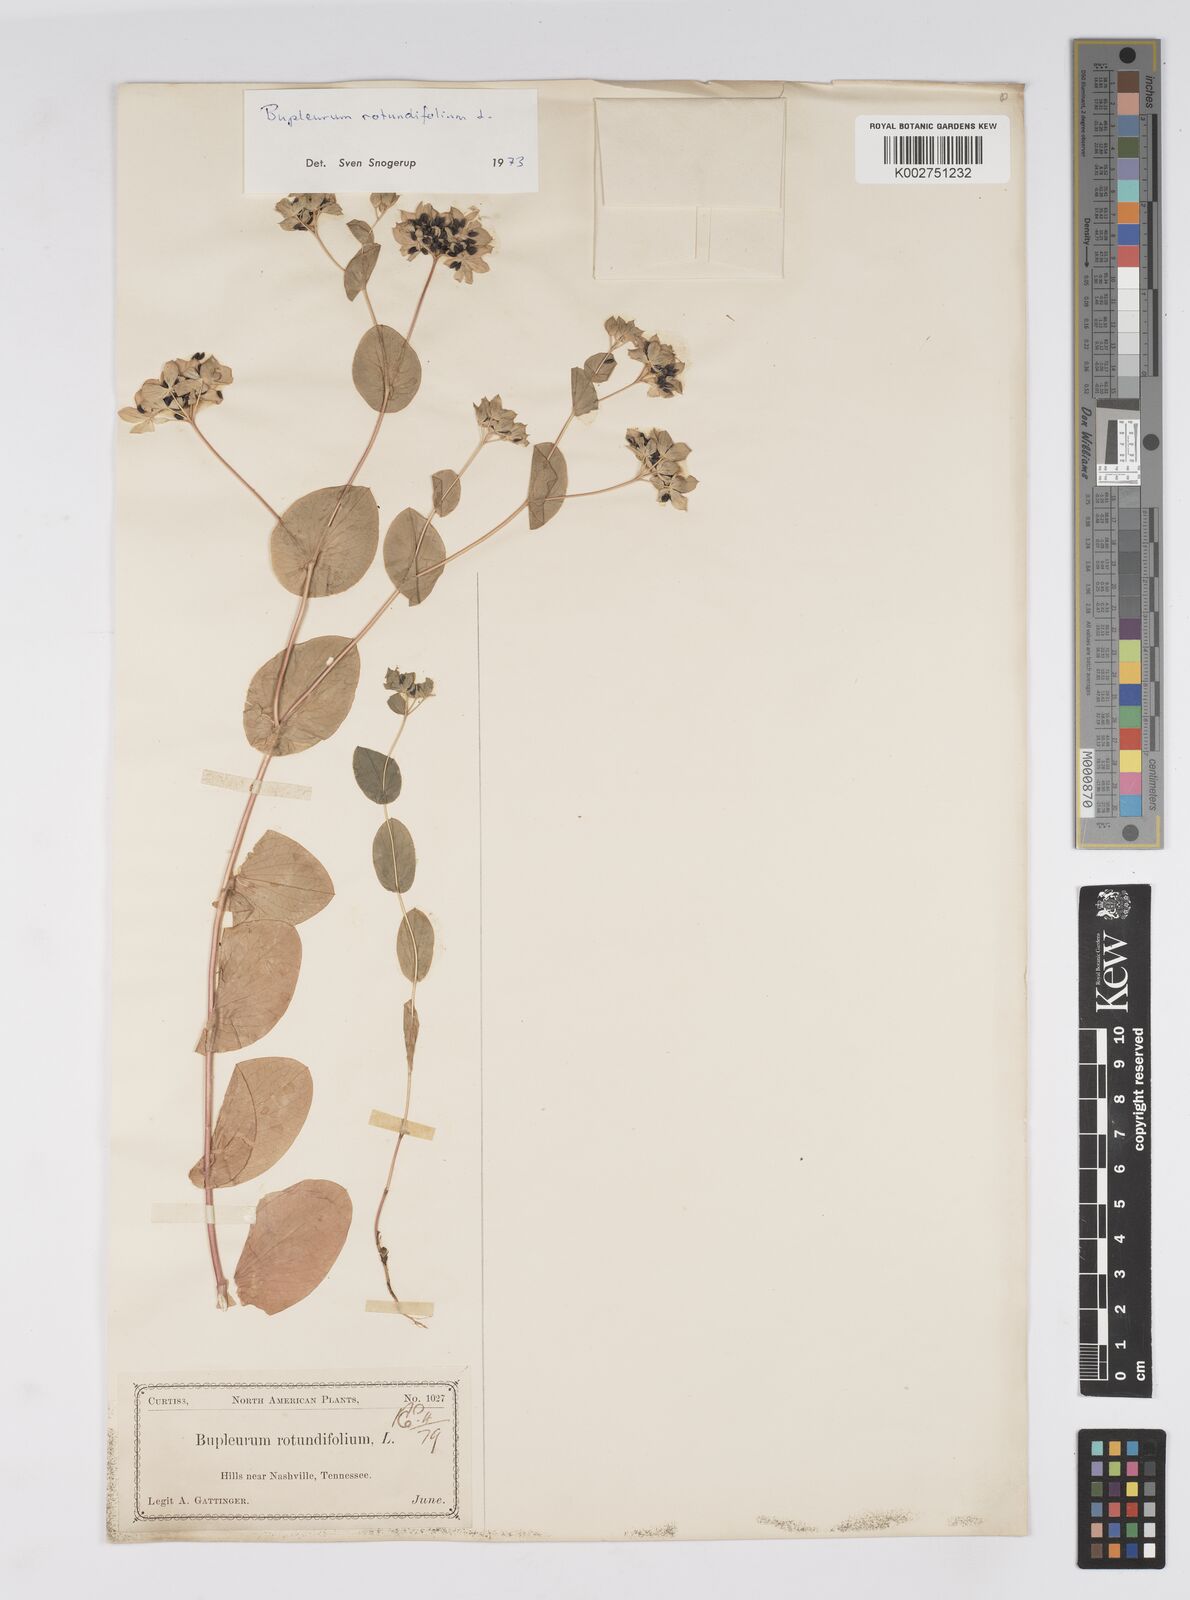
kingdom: Plantae
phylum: Tracheophyta
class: Magnoliopsida
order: Apiales
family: Apiaceae
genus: Bupleurum
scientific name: Bupleurum rotundifolium
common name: Thorow-wax
